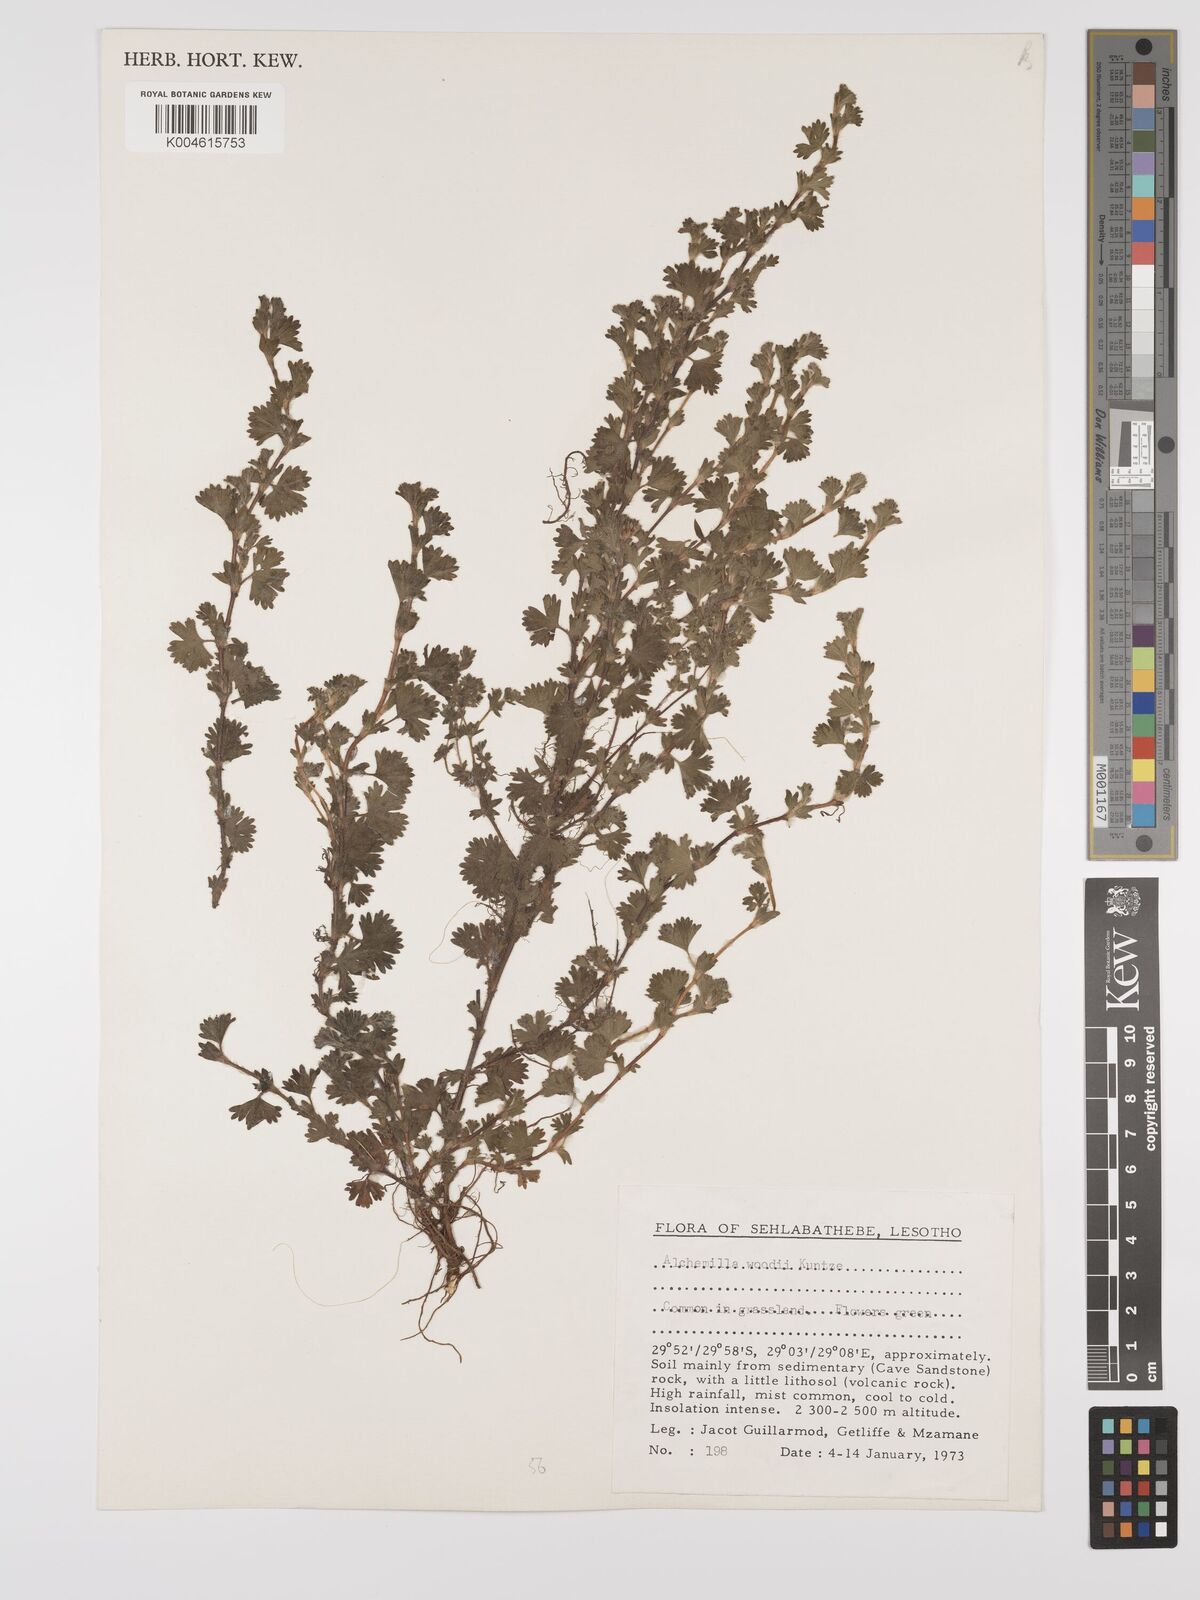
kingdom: Plantae
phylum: Tracheophyta
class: Magnoliopsida
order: Rosales
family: Rosaceae
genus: Alchemilla
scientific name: Alchemilla woodii
